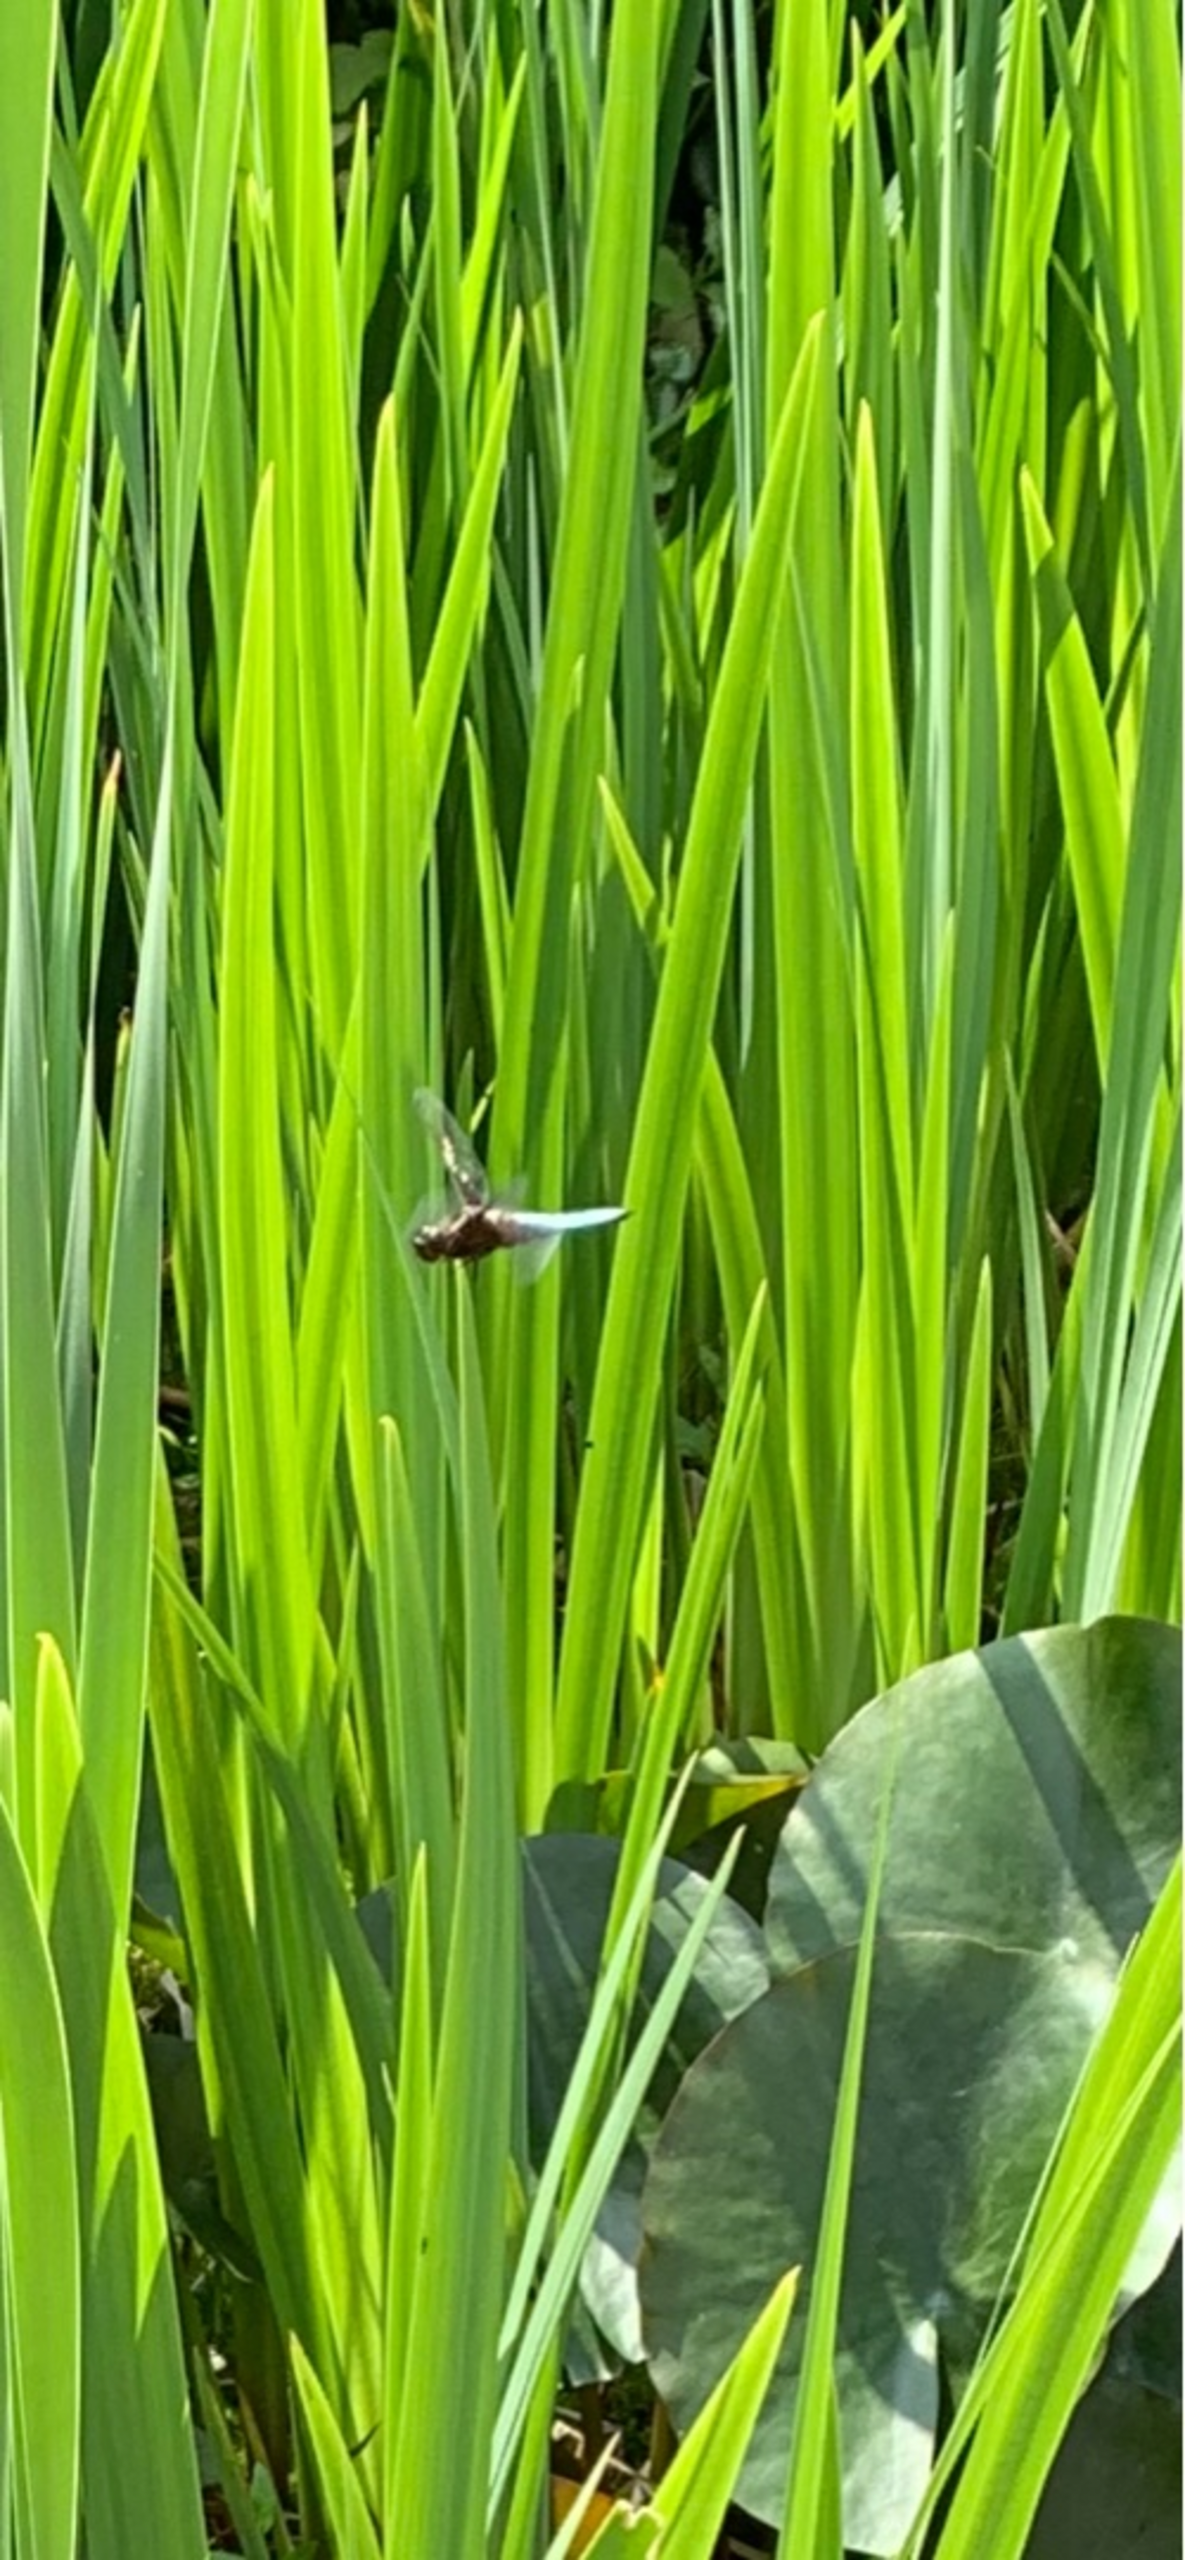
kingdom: Animalia
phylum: Arthropoda
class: Insecta
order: Odonata
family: Libellulidae
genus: Libellula
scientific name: Libellula depressa
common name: Blå libel
